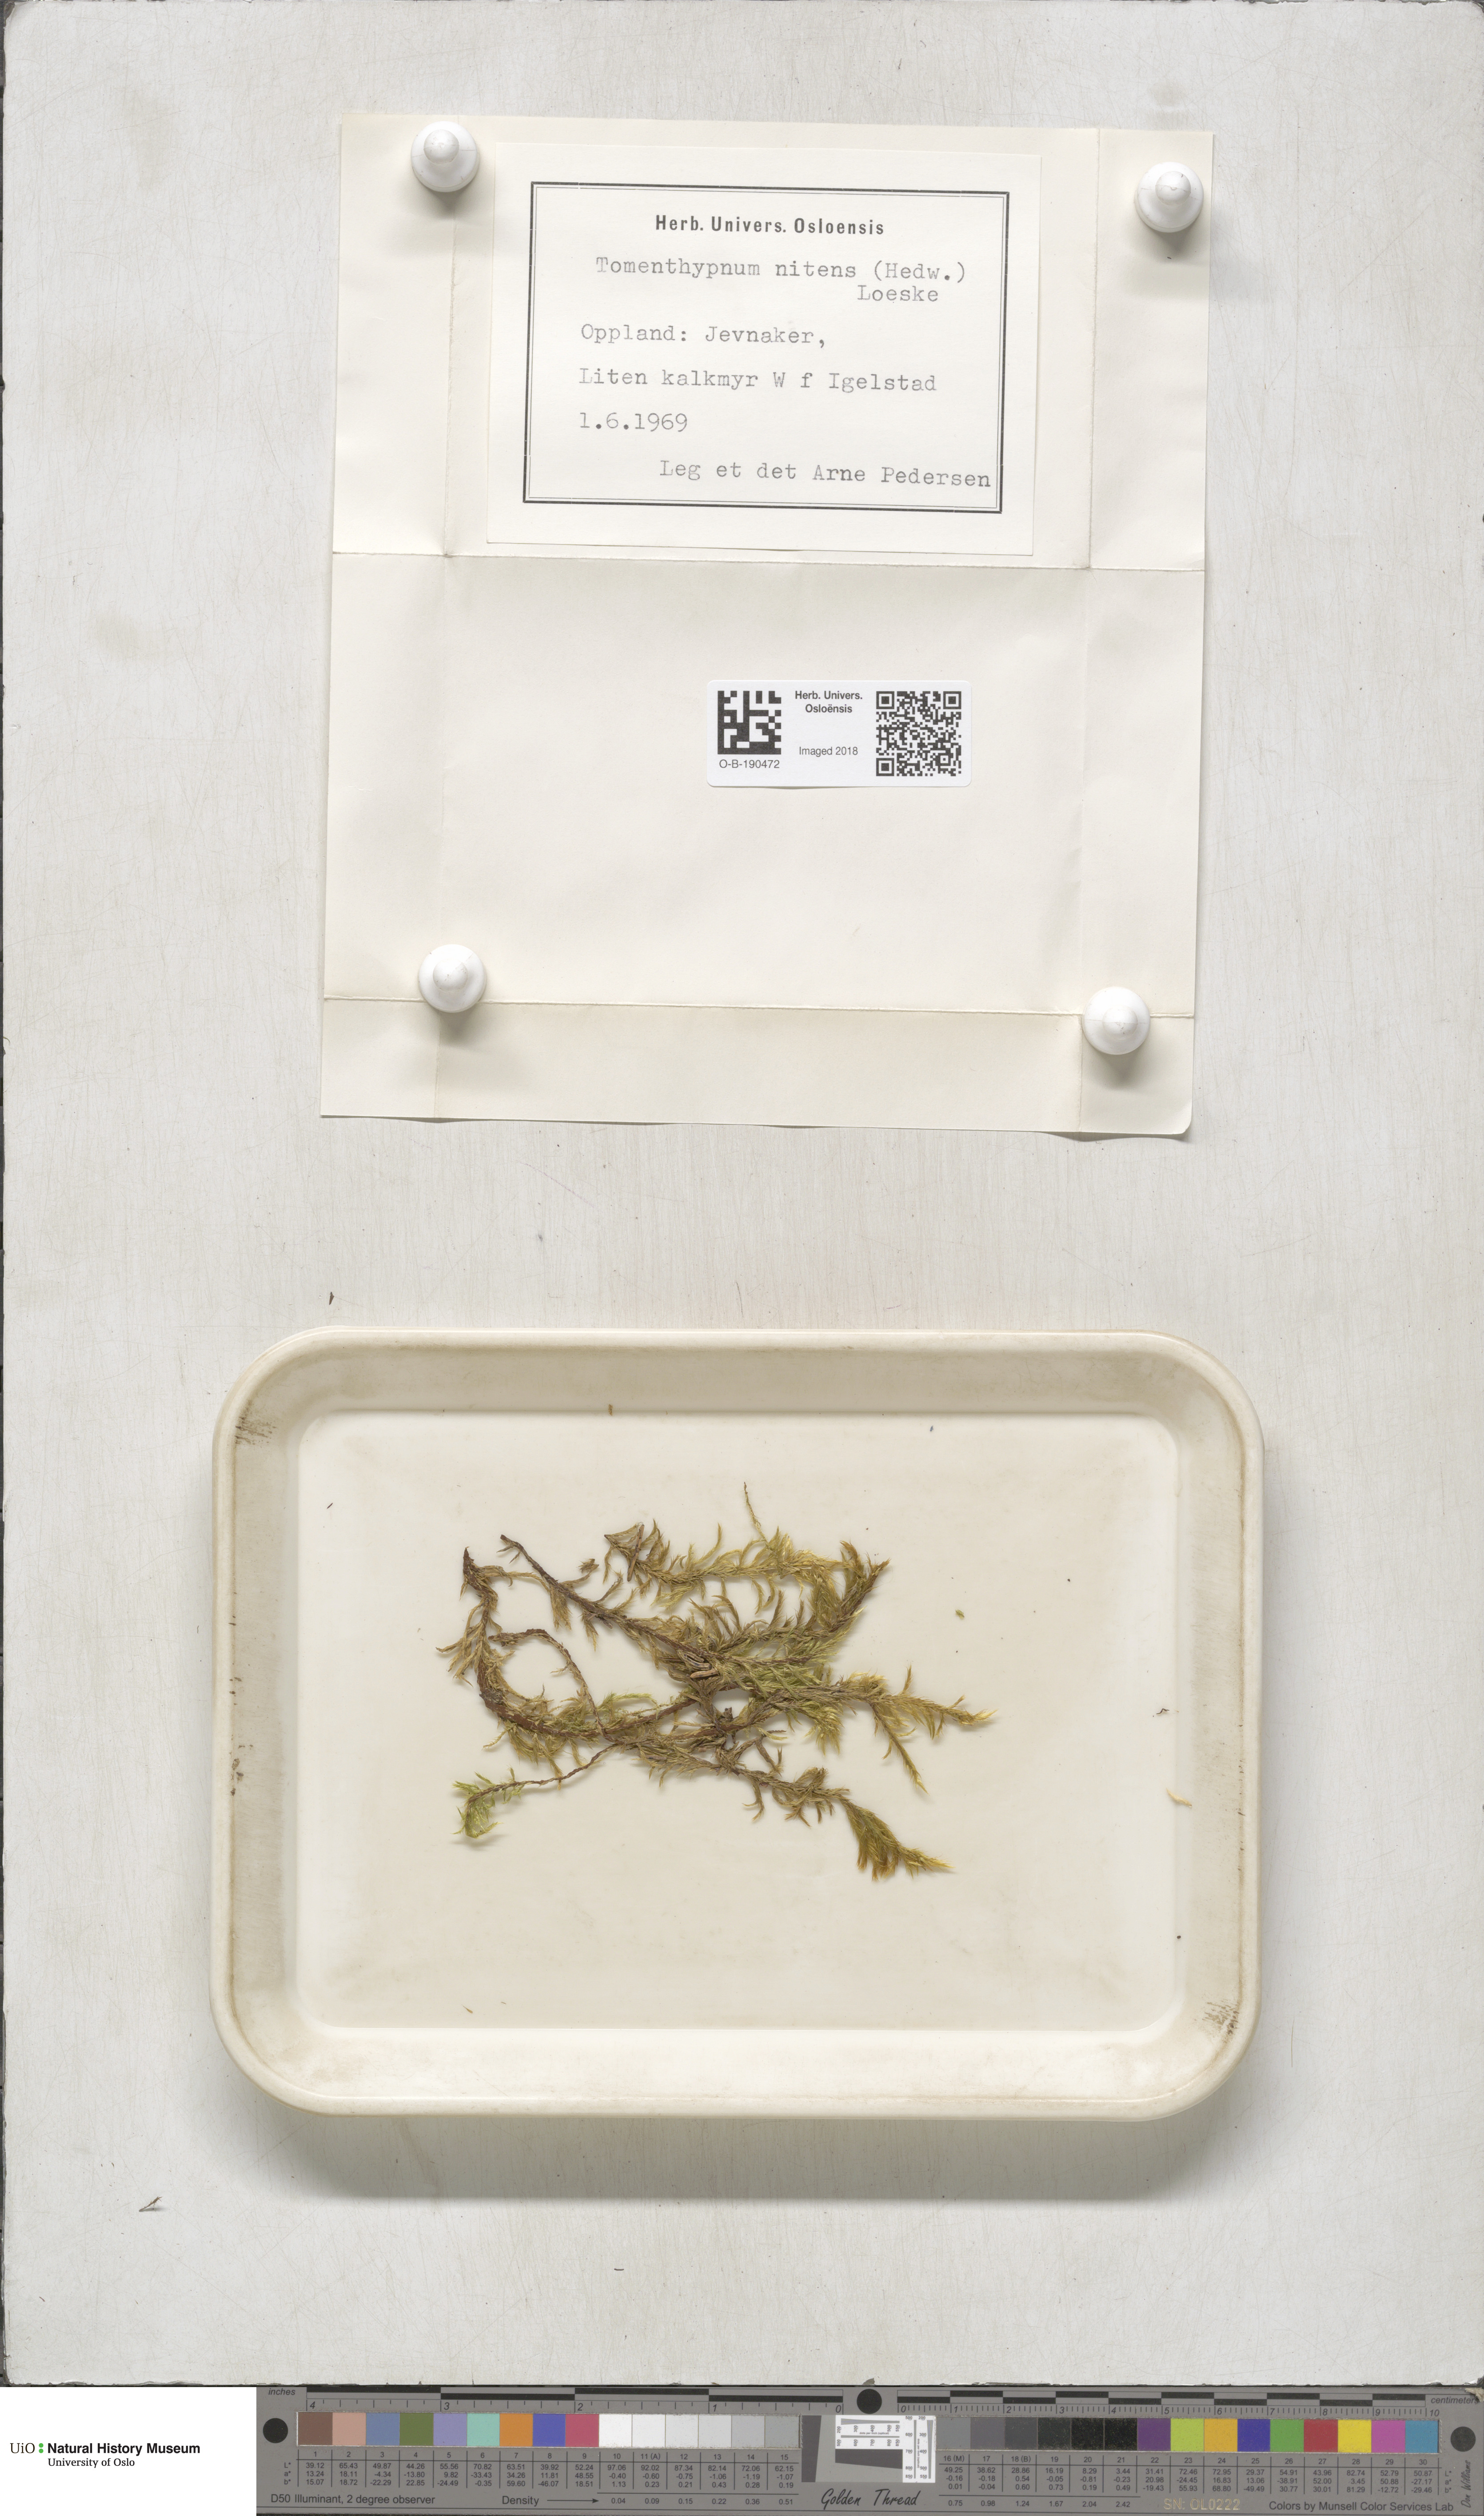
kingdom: Plantae
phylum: Bryophyta
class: Bryopsida
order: Hypnales
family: Amblystegiaceae
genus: Tomentypnum
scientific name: Tomentypnum nitens
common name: Golden fuzzy fen moss
